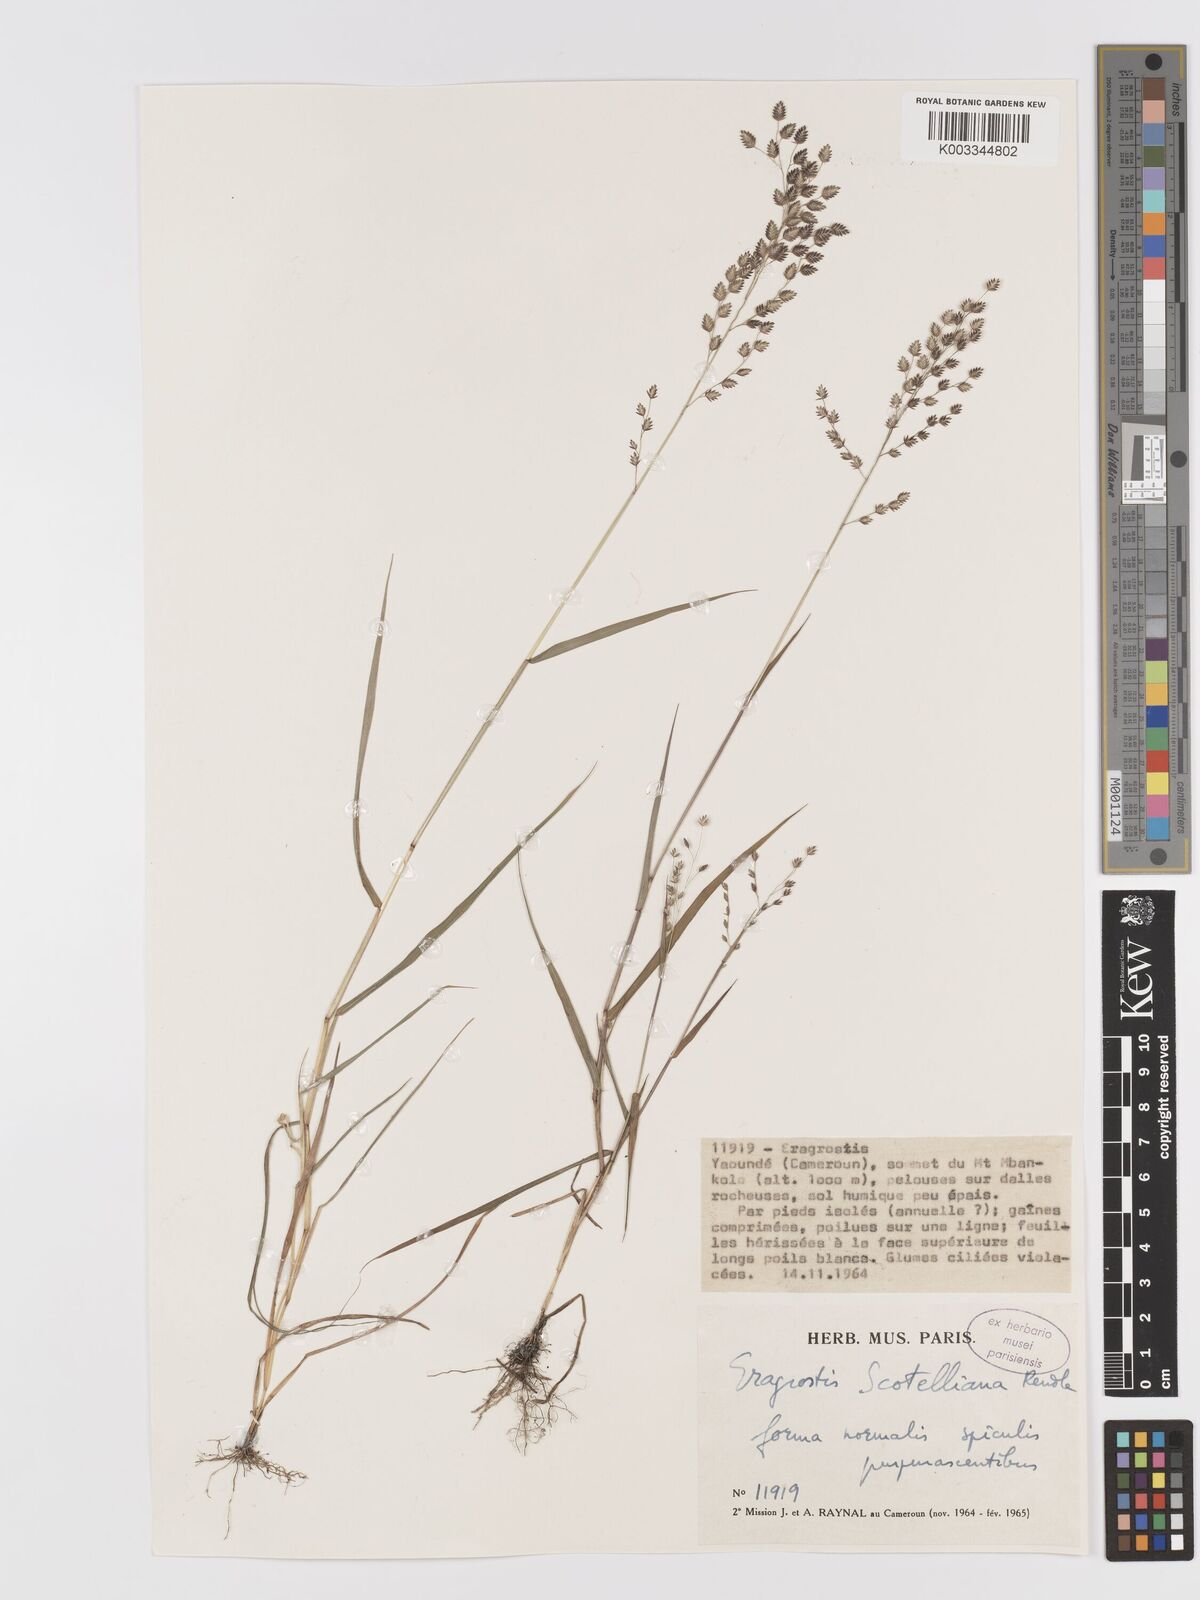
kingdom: Plantae
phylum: Tracheophyta
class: Liliopsida
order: Poales
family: Poaceae
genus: Eragrostis
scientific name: Eragrostis scotelliana
